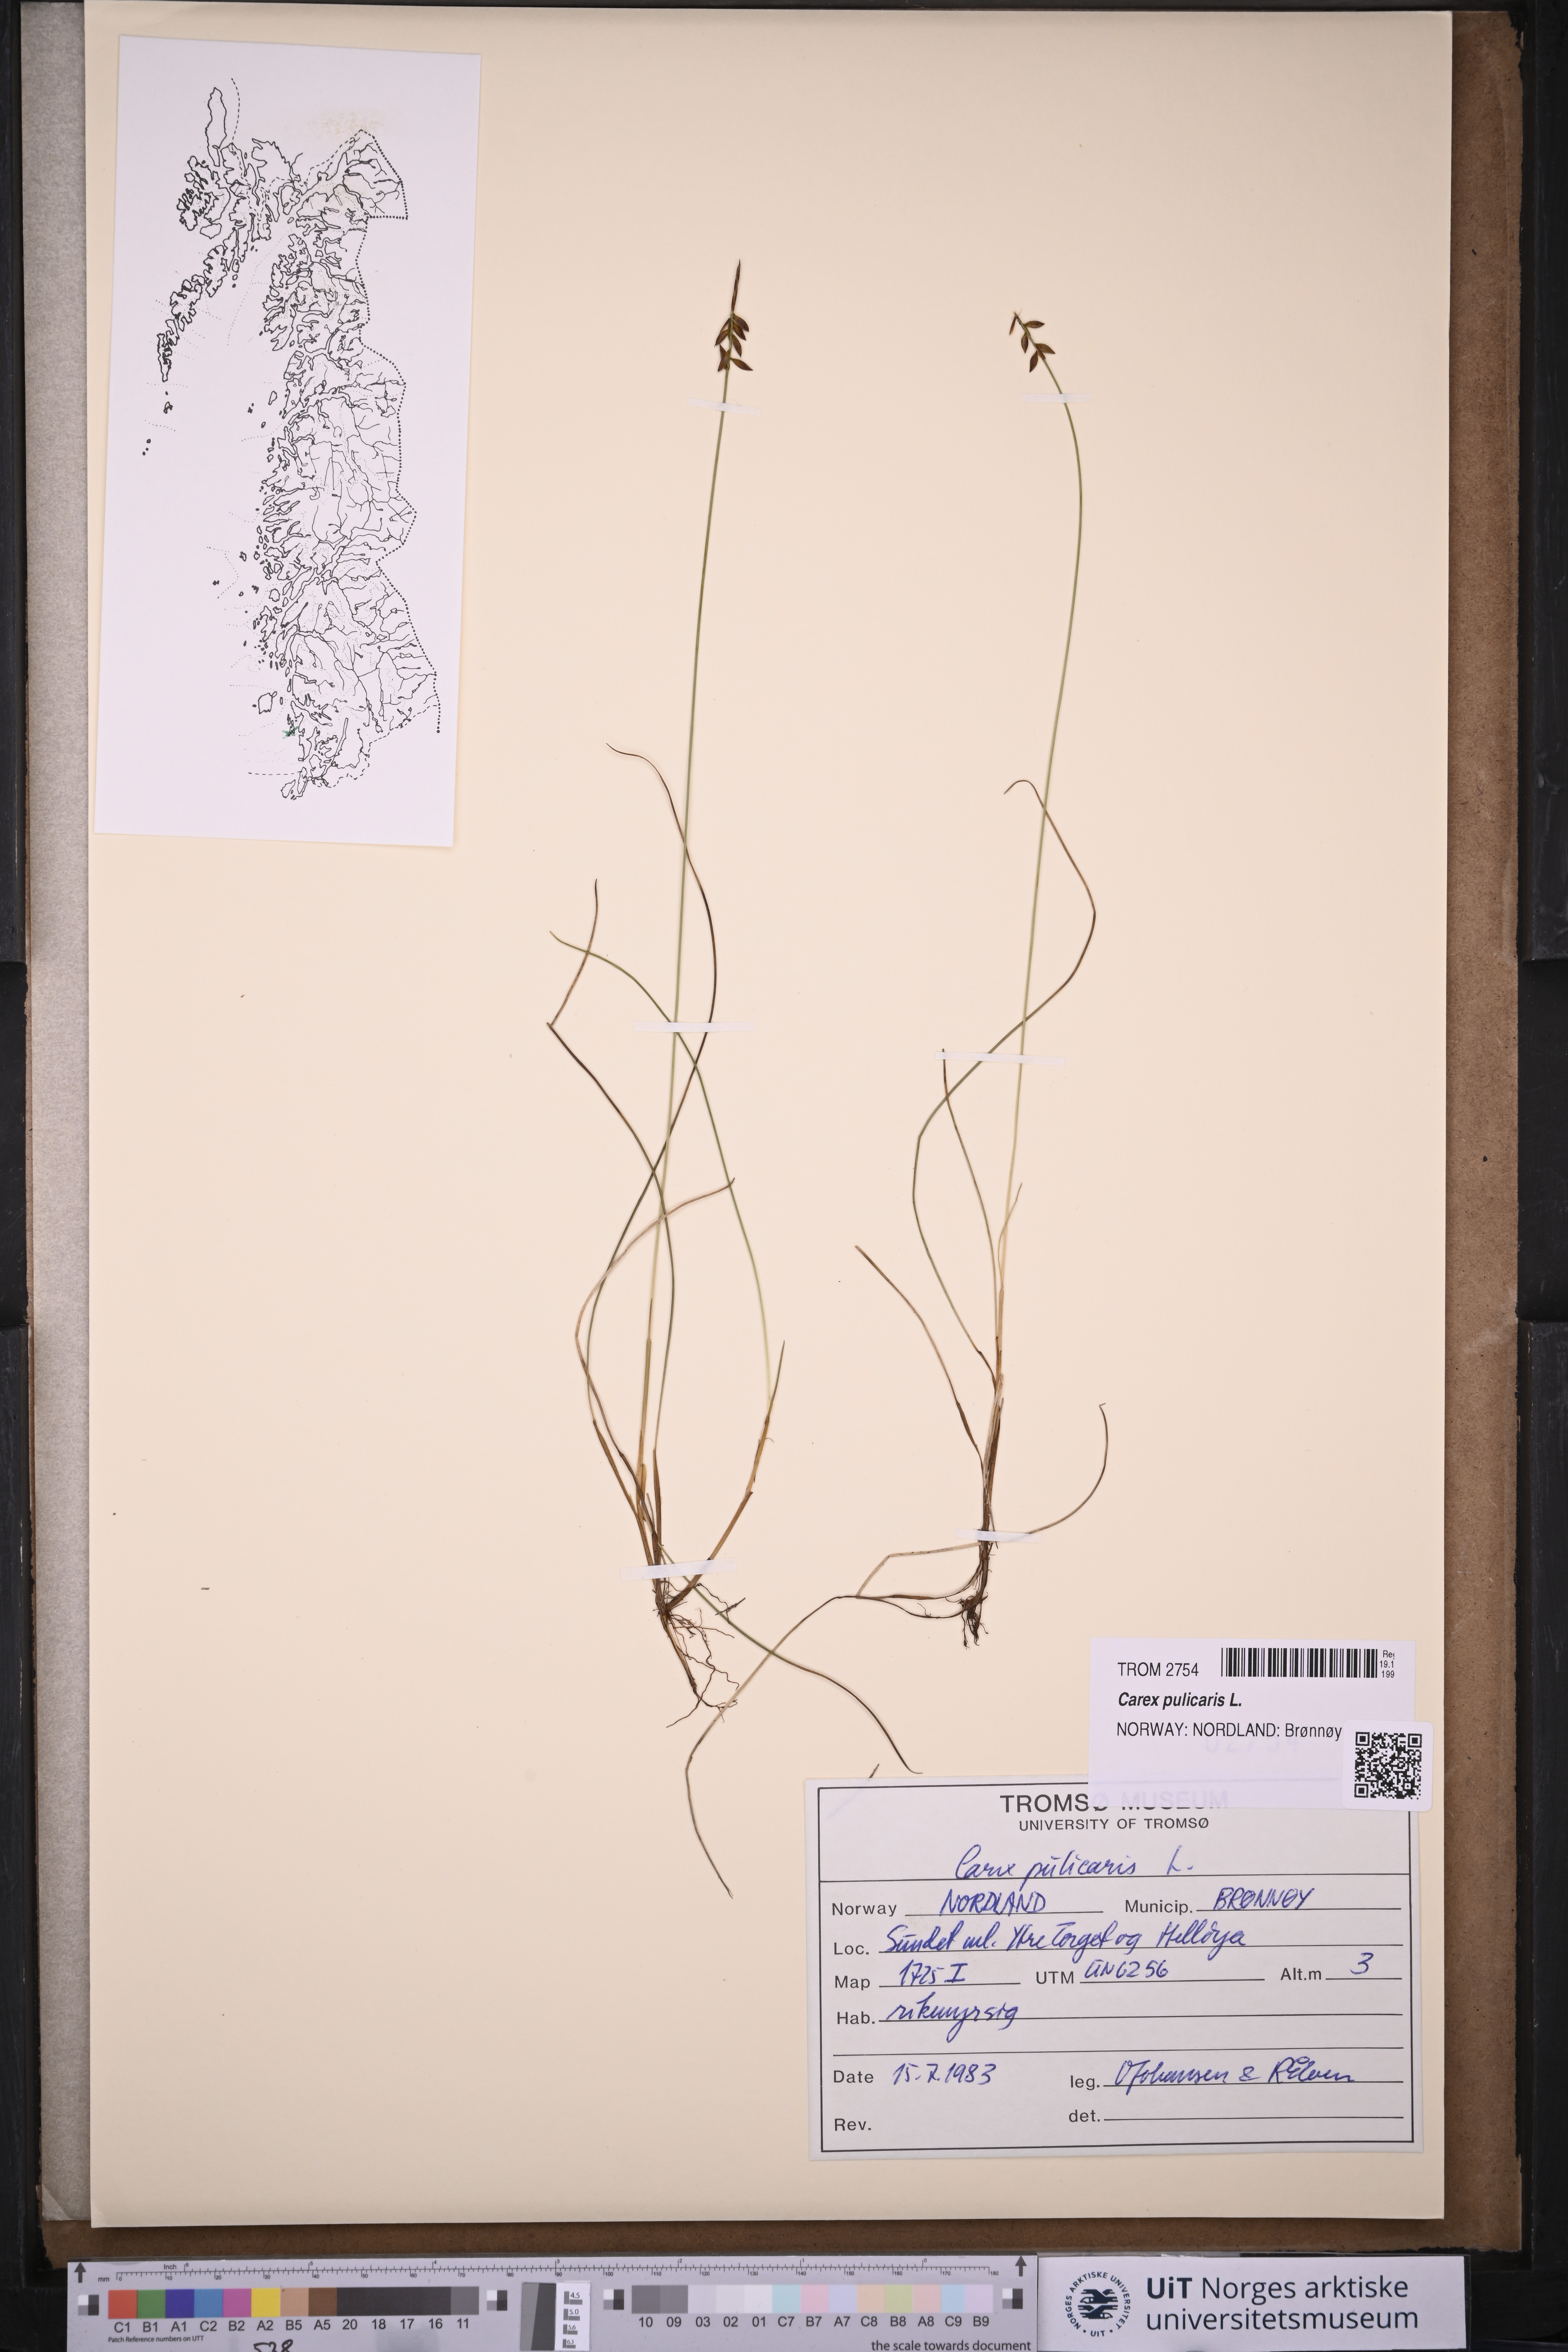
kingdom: Plantae
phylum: Tracheophyta
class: Liliopsida
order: Poales
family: Cyperaceae
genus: Carex
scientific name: Carex pulicaris
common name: Flea sedge
